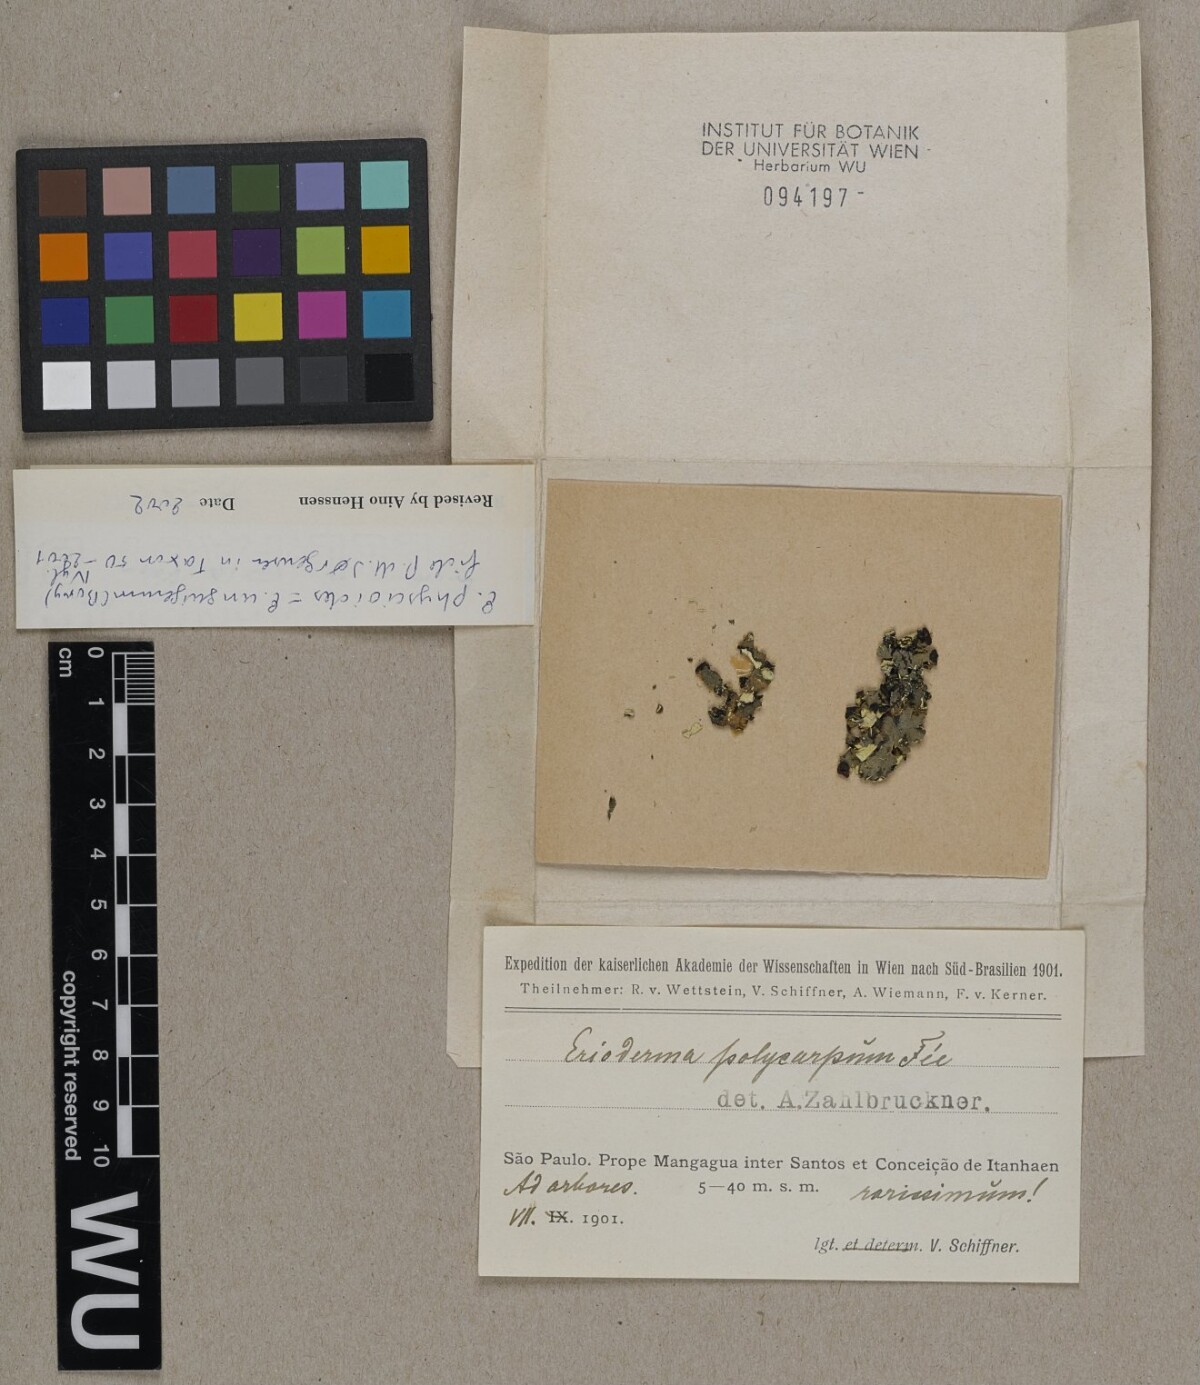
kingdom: Fungi
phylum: Ascomycota
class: Lecanoromycetes
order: Peltigerales
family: Pannariaceae
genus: Erioderma
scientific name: Erioderma physcioides
